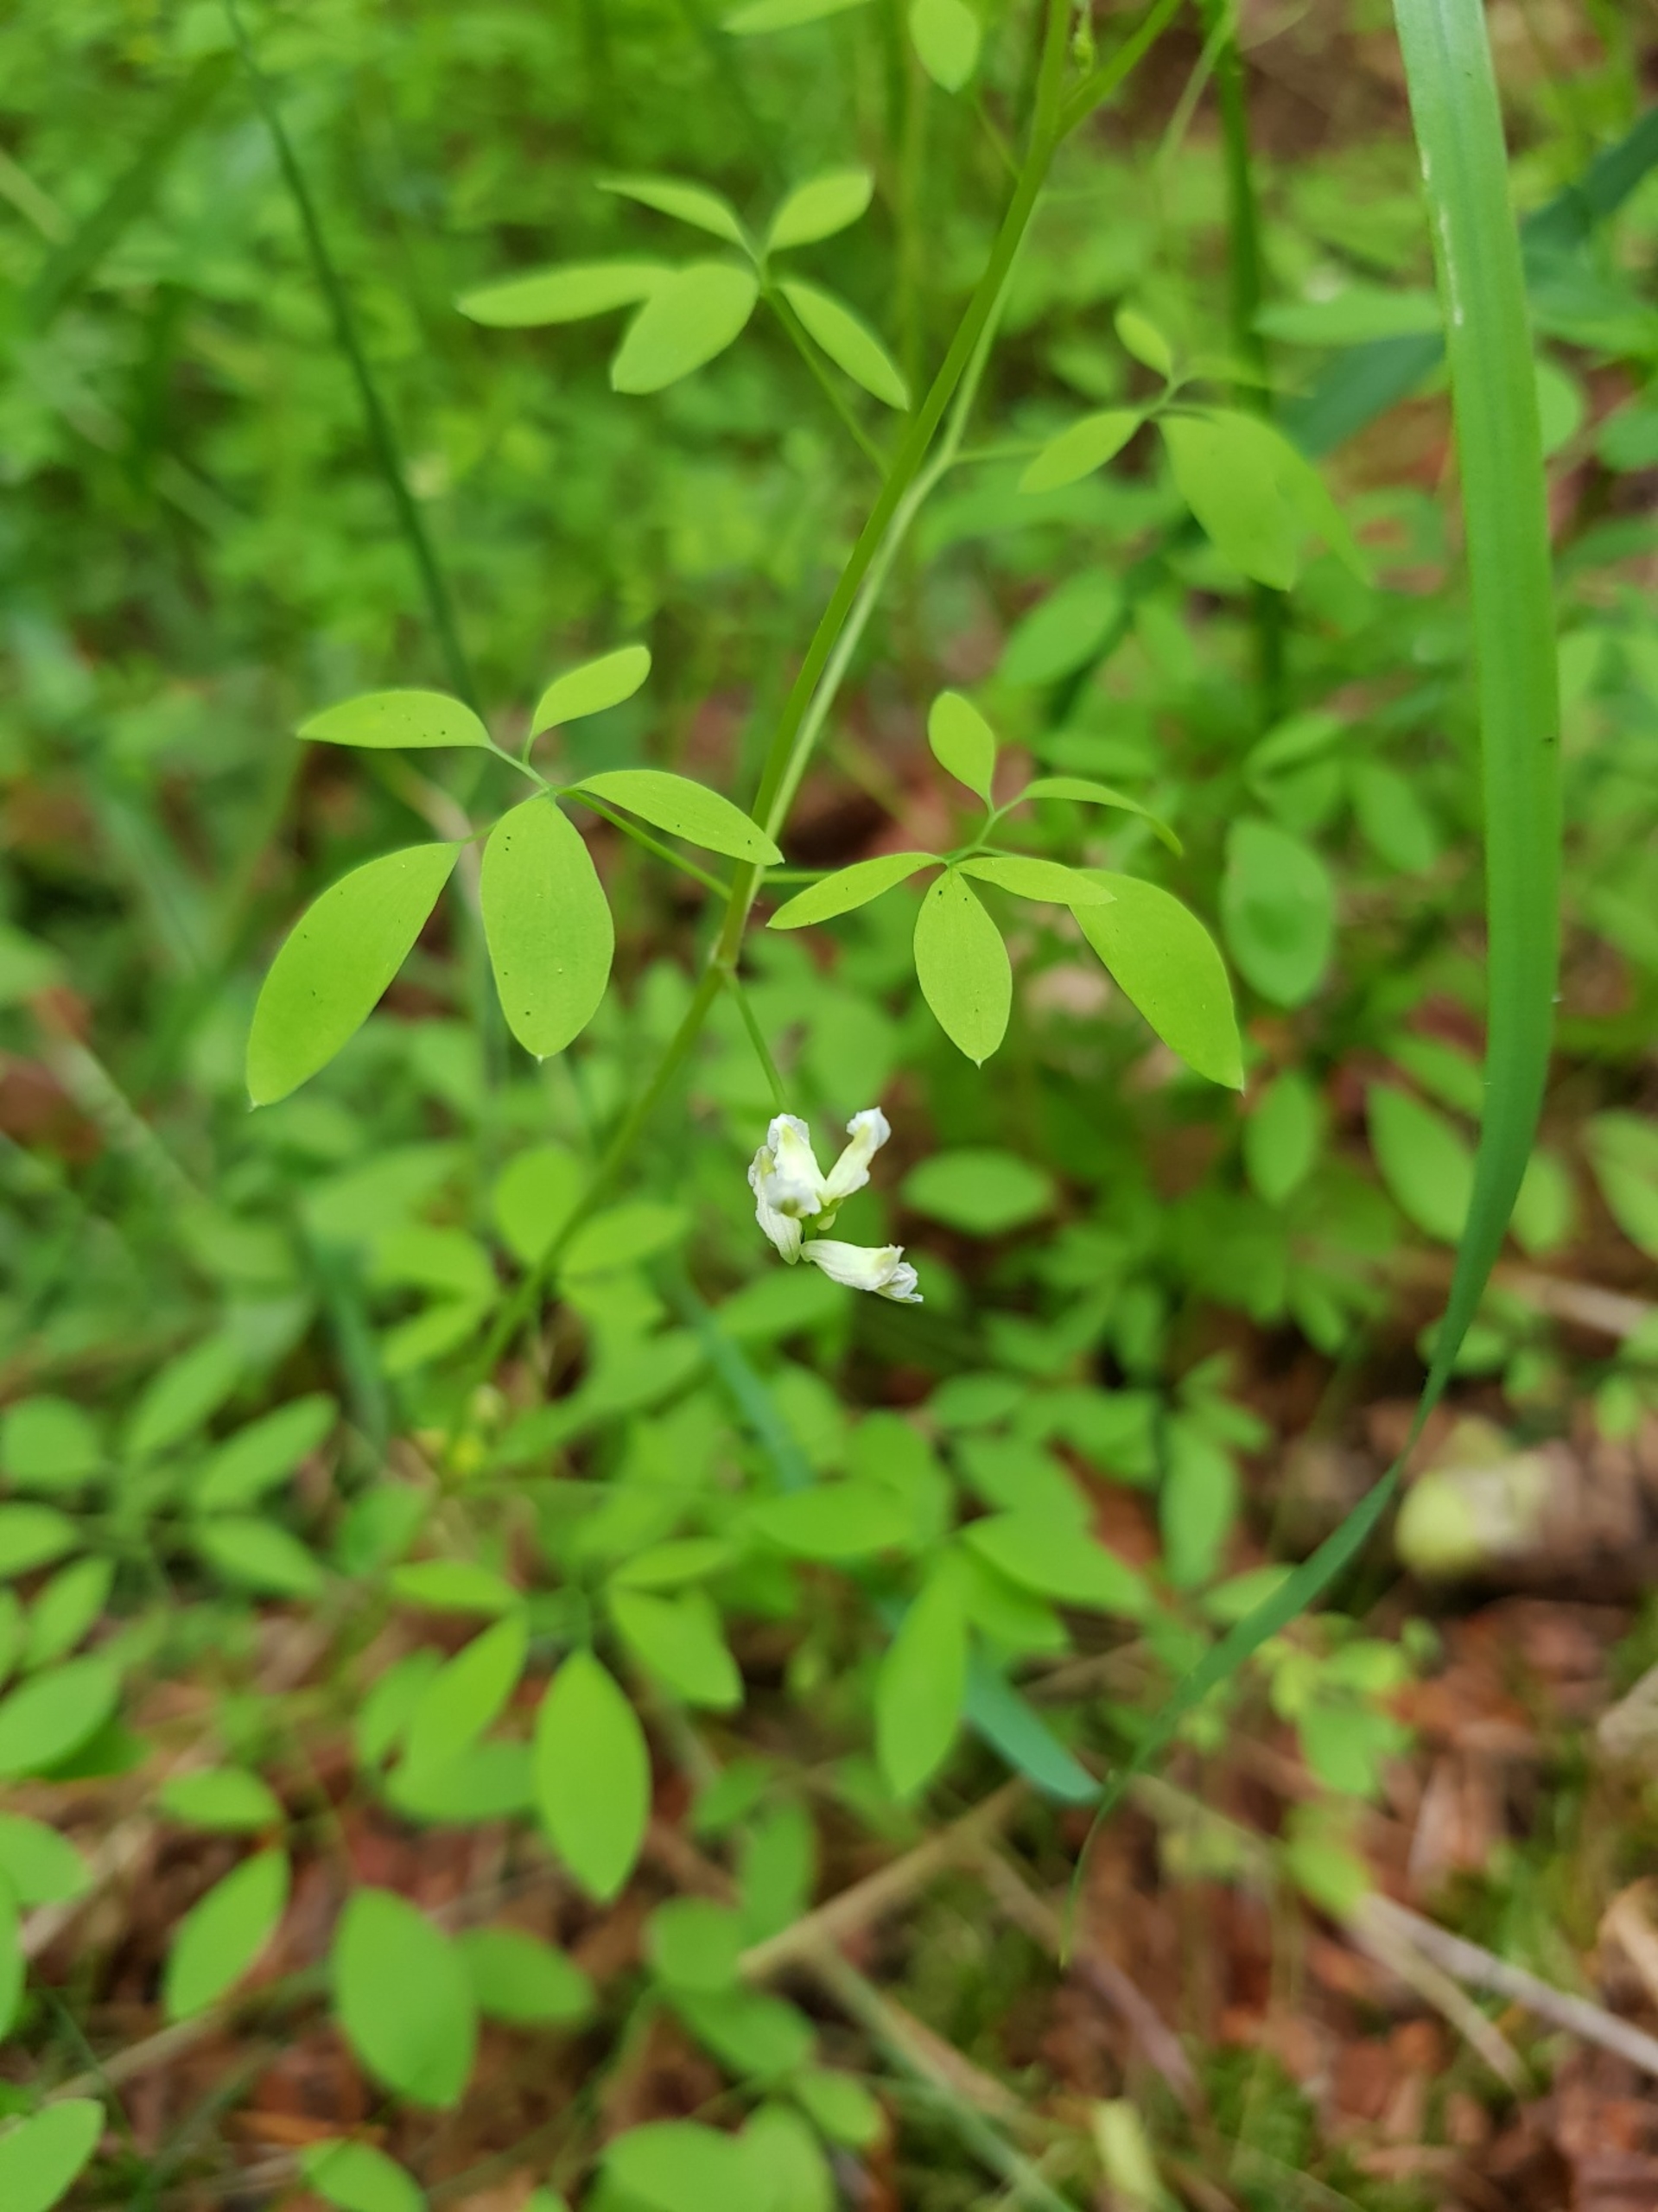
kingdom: Plantae
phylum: Tracheophyta
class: Magnoliopsida
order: Ranunculales
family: Papaveraceae
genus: Ceratocapnos
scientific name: Ceratocapnos claviculata
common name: Klatrende lærkespore
